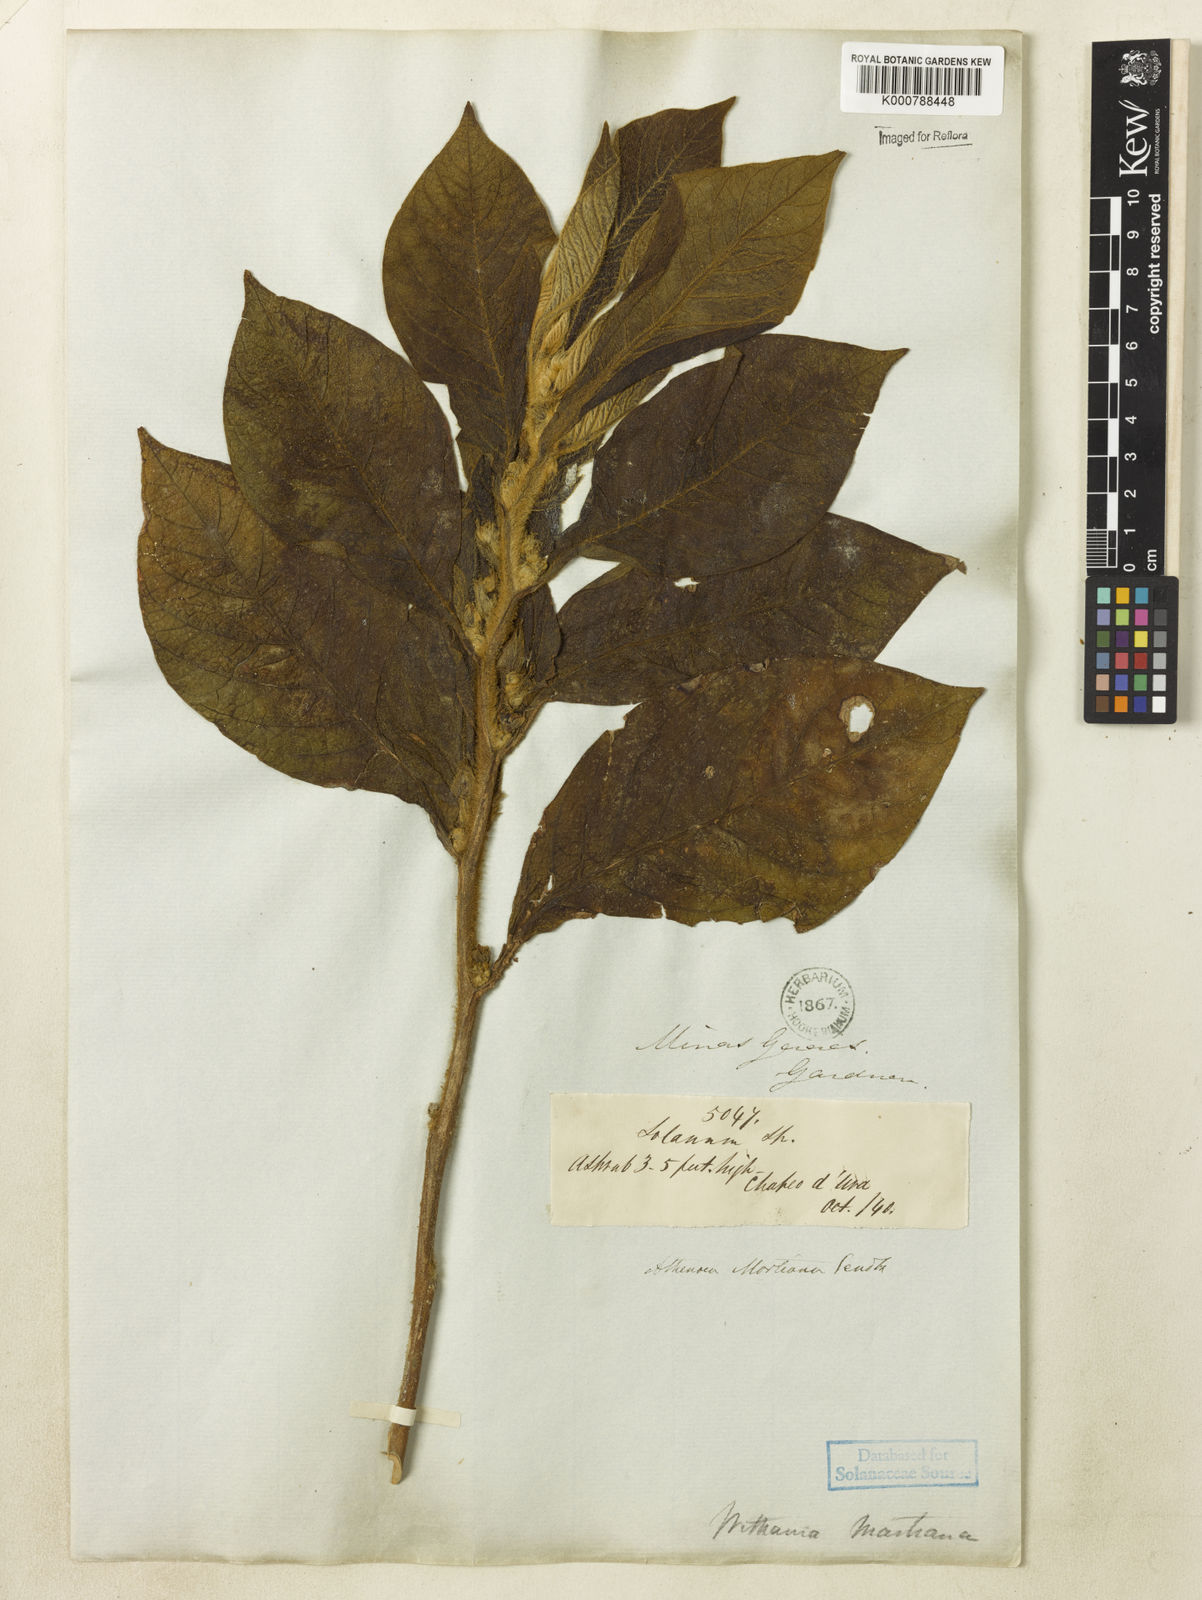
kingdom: Plantae
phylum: Tracheophyta
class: Magnoliopsida
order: Solanales
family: Solanaceae
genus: Athenaea
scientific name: Athenaea martiana
